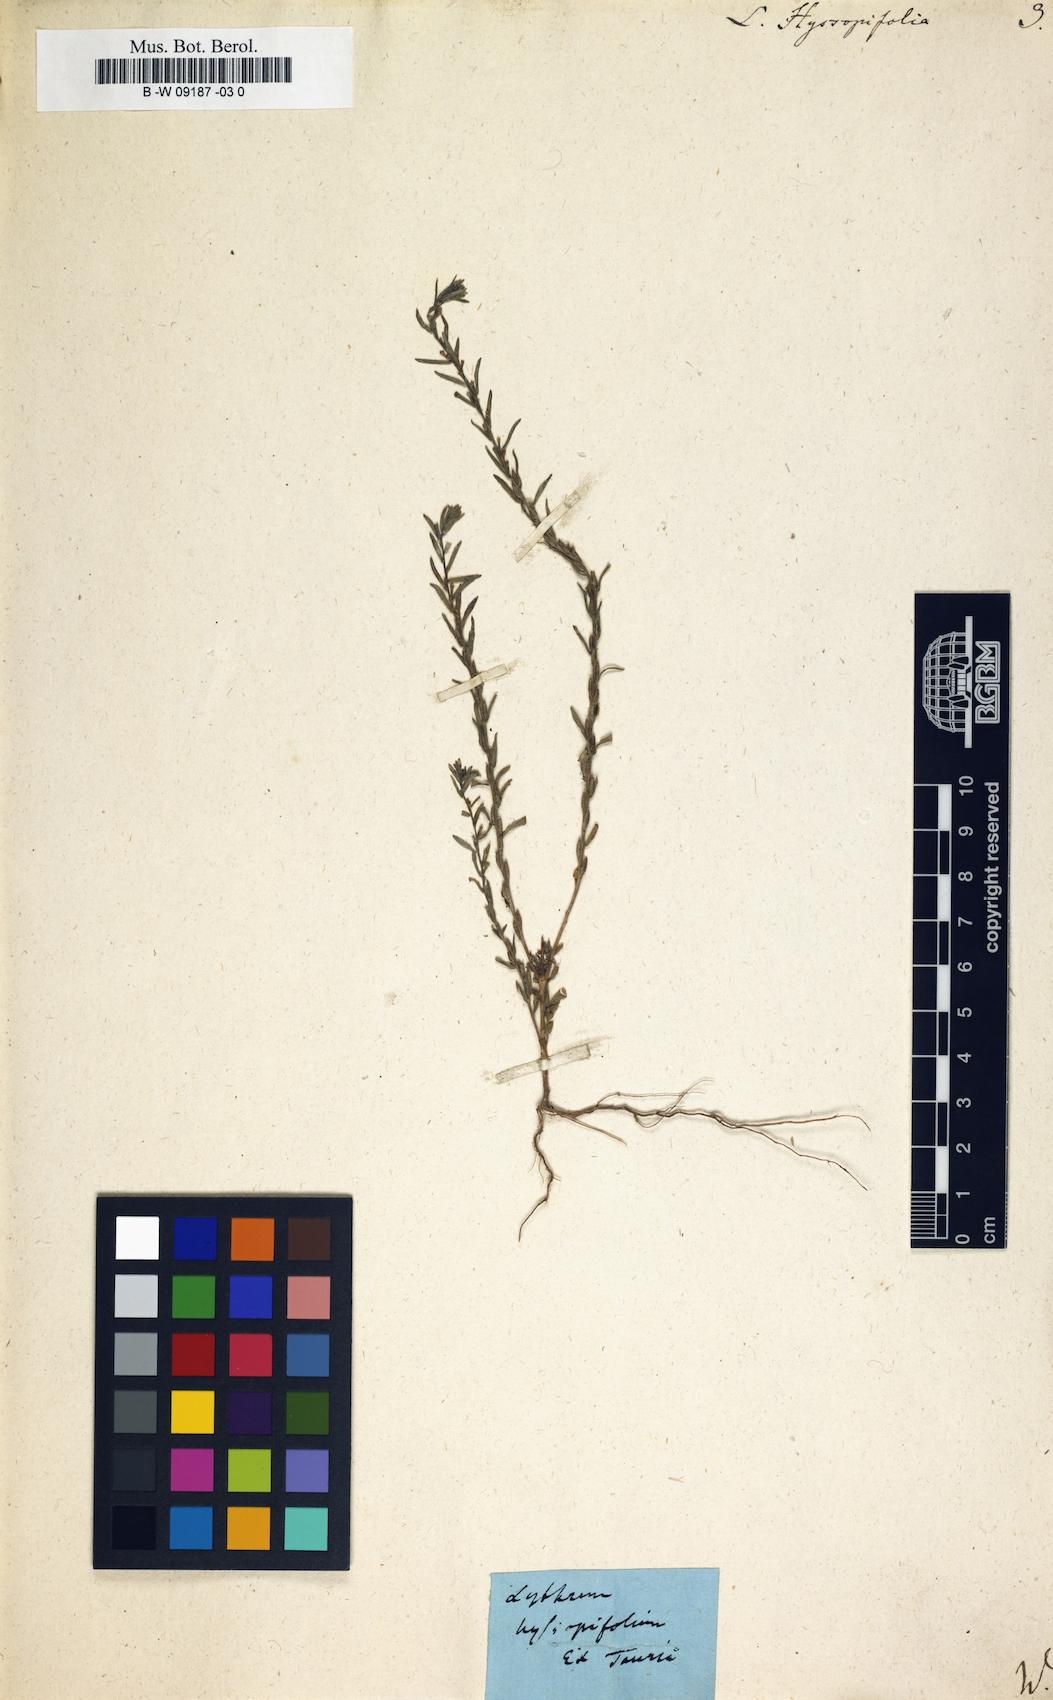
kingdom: Plantae
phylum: Tracheophyta
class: Magnoliopsida
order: Myrtales
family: Lythraceae
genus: Lythrum
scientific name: Lythrum hyssopifolia
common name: Grass-poly
